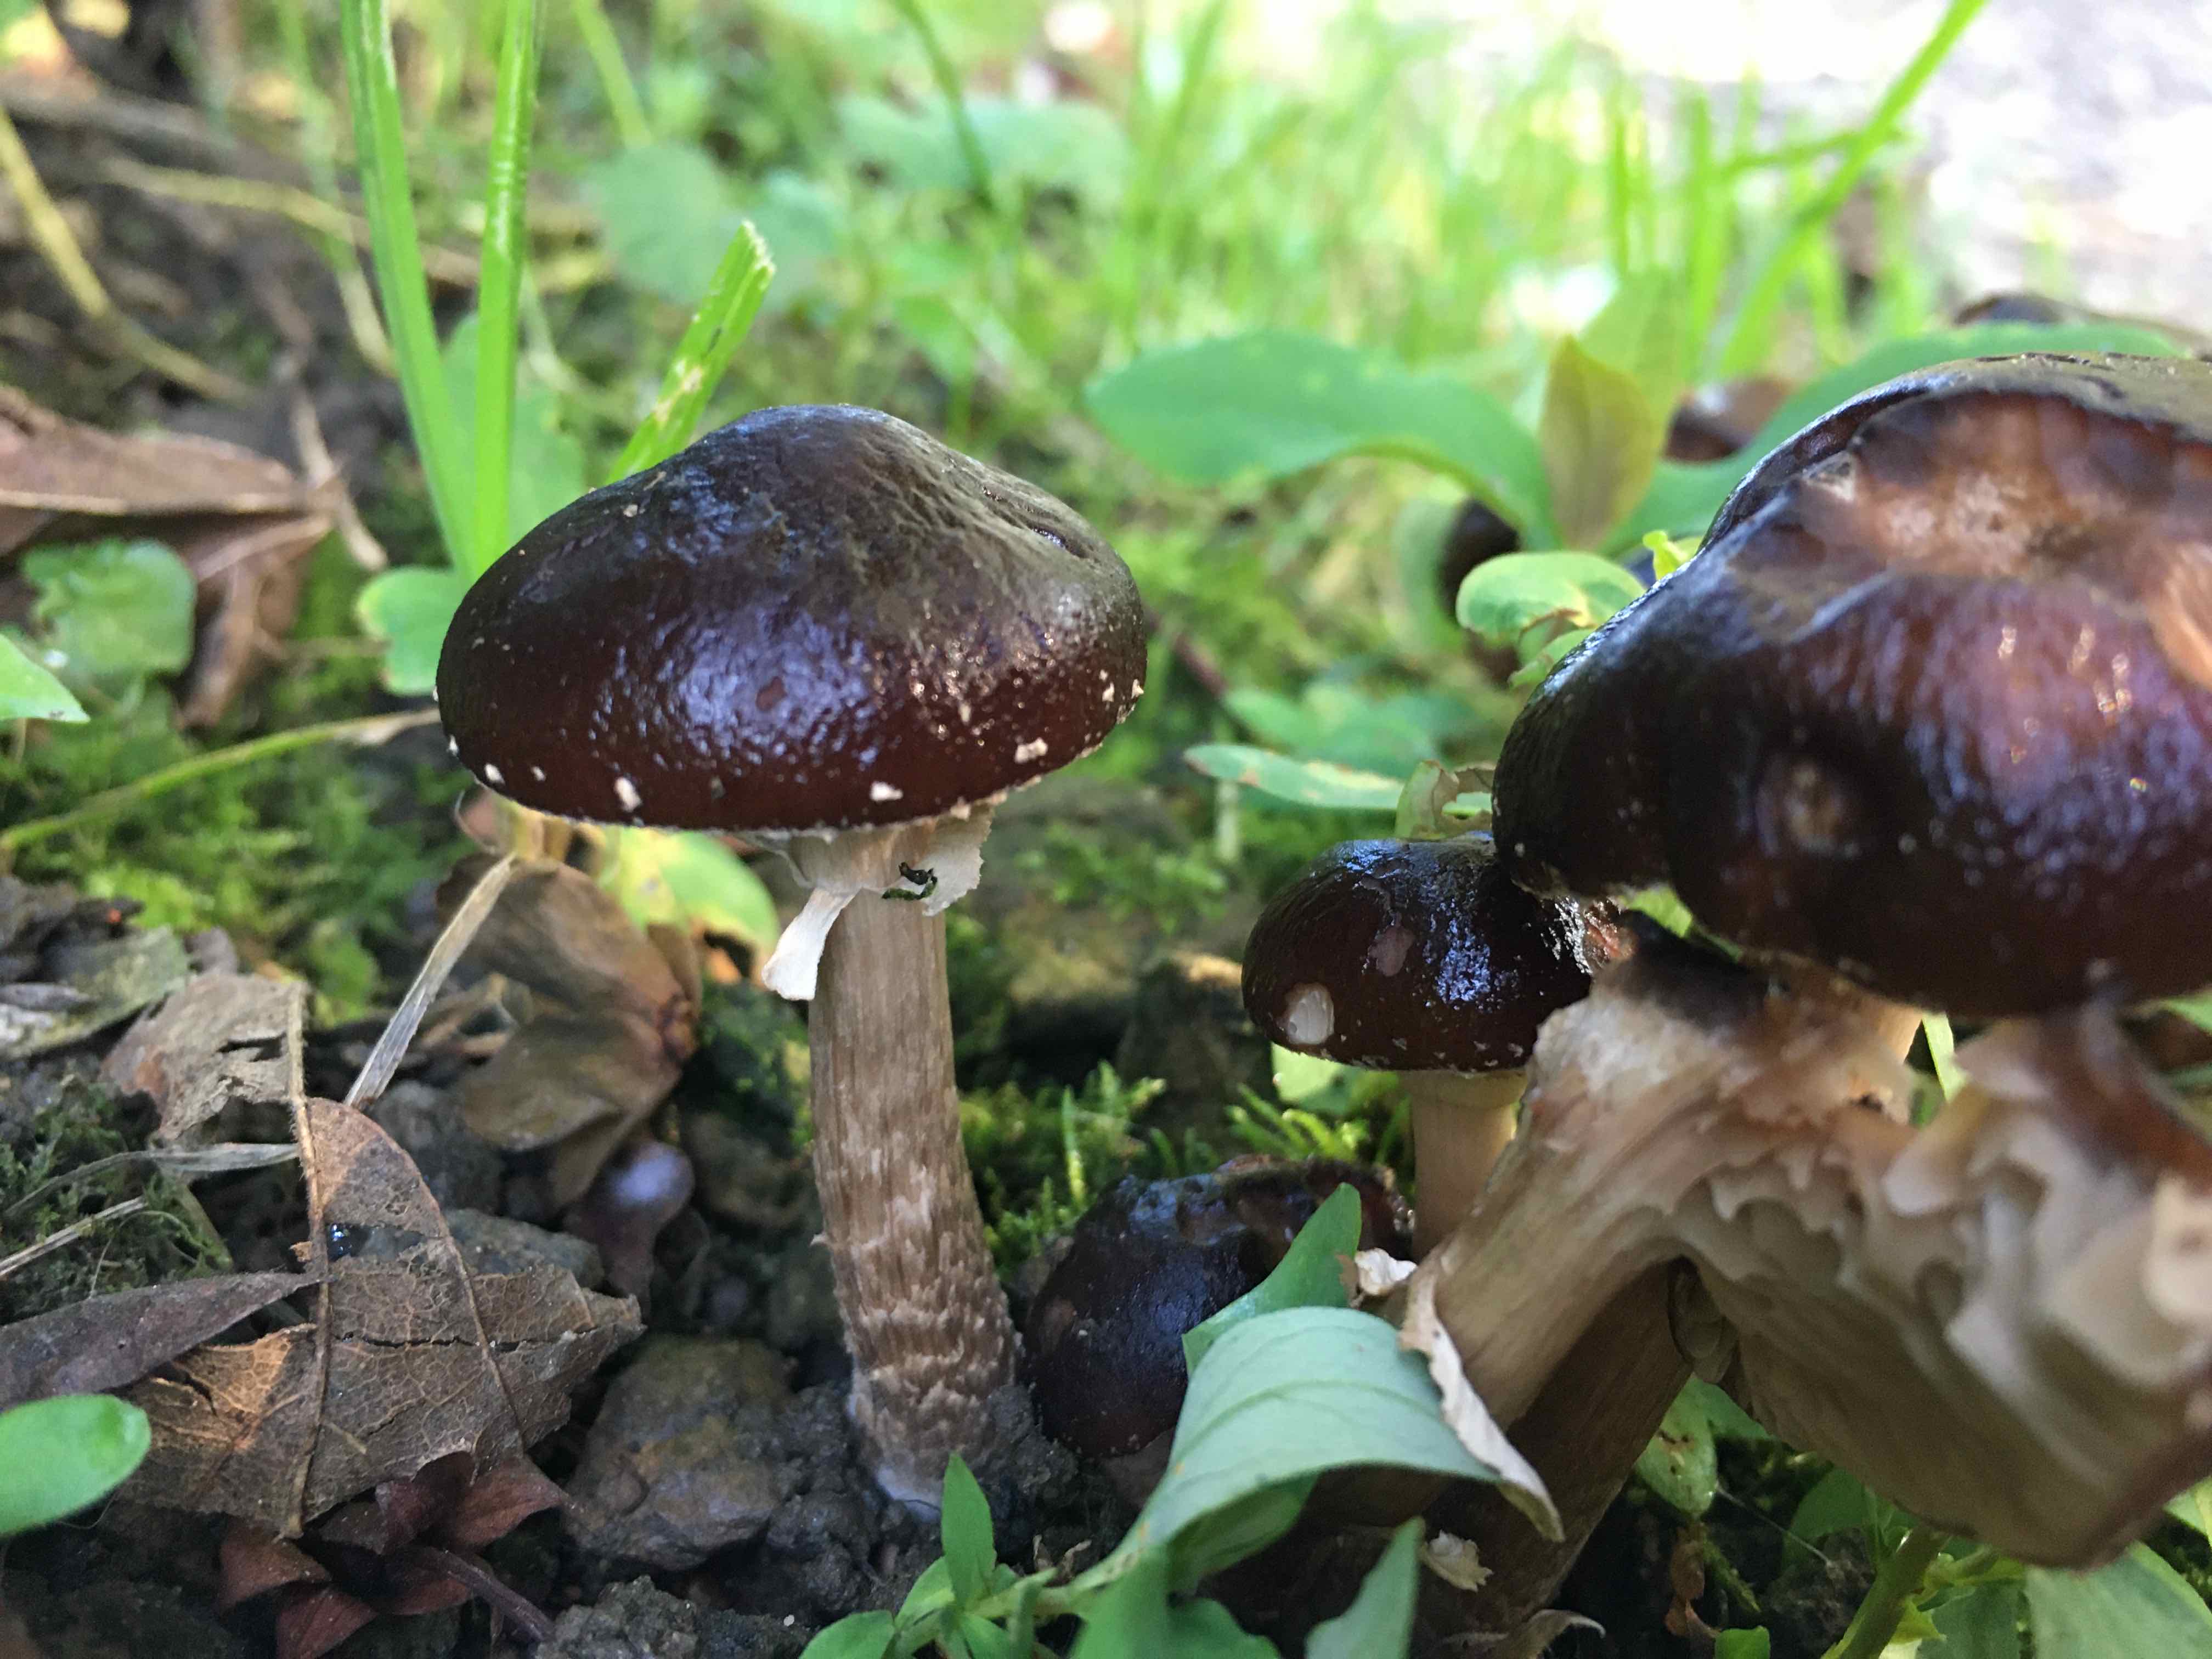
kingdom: Fungi
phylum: Basidiomycota
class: Agaricomycetes
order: Agaricales
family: Tubariaceae
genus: Cyclocybe
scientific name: Cyclocybe erebia
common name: mørk agerhat
